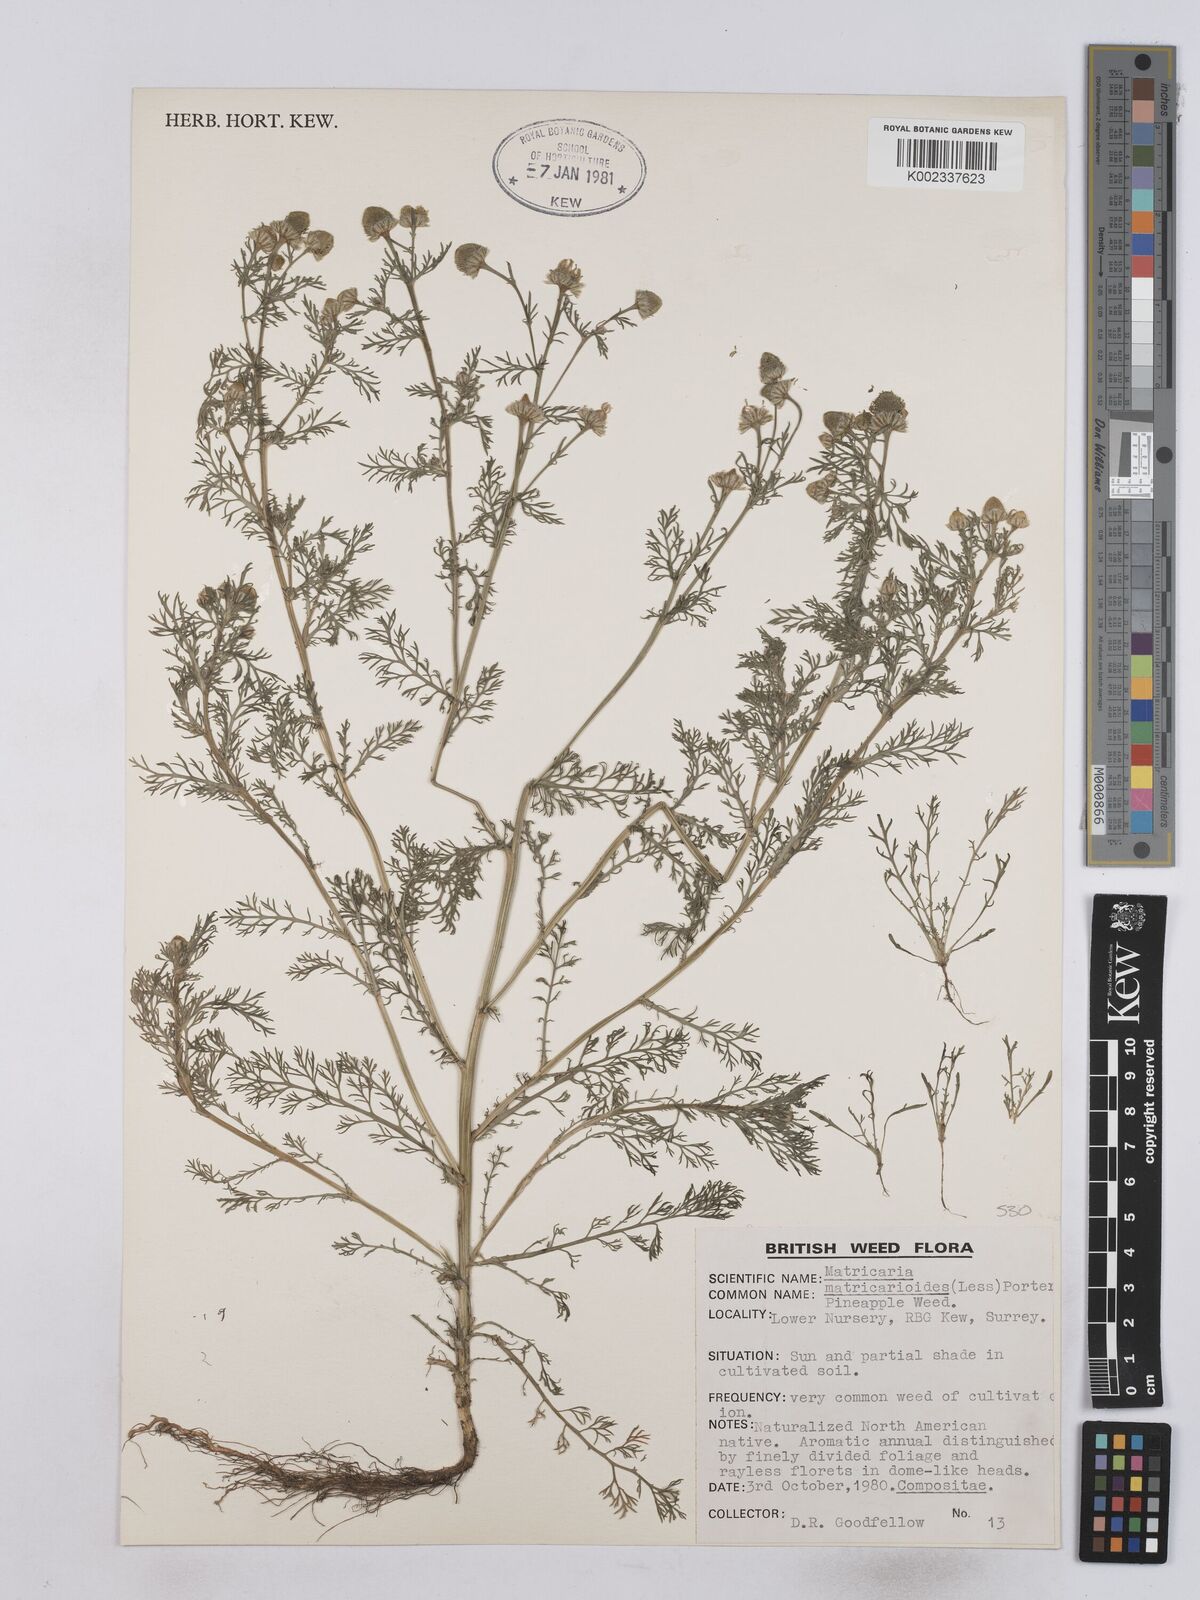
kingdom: Plantae
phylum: Tracheophyta
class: Magnoliopsida
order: Asterales
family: Asteraceae
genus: Matricaria
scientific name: Matricaria discoidea
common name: Disc mayweed
